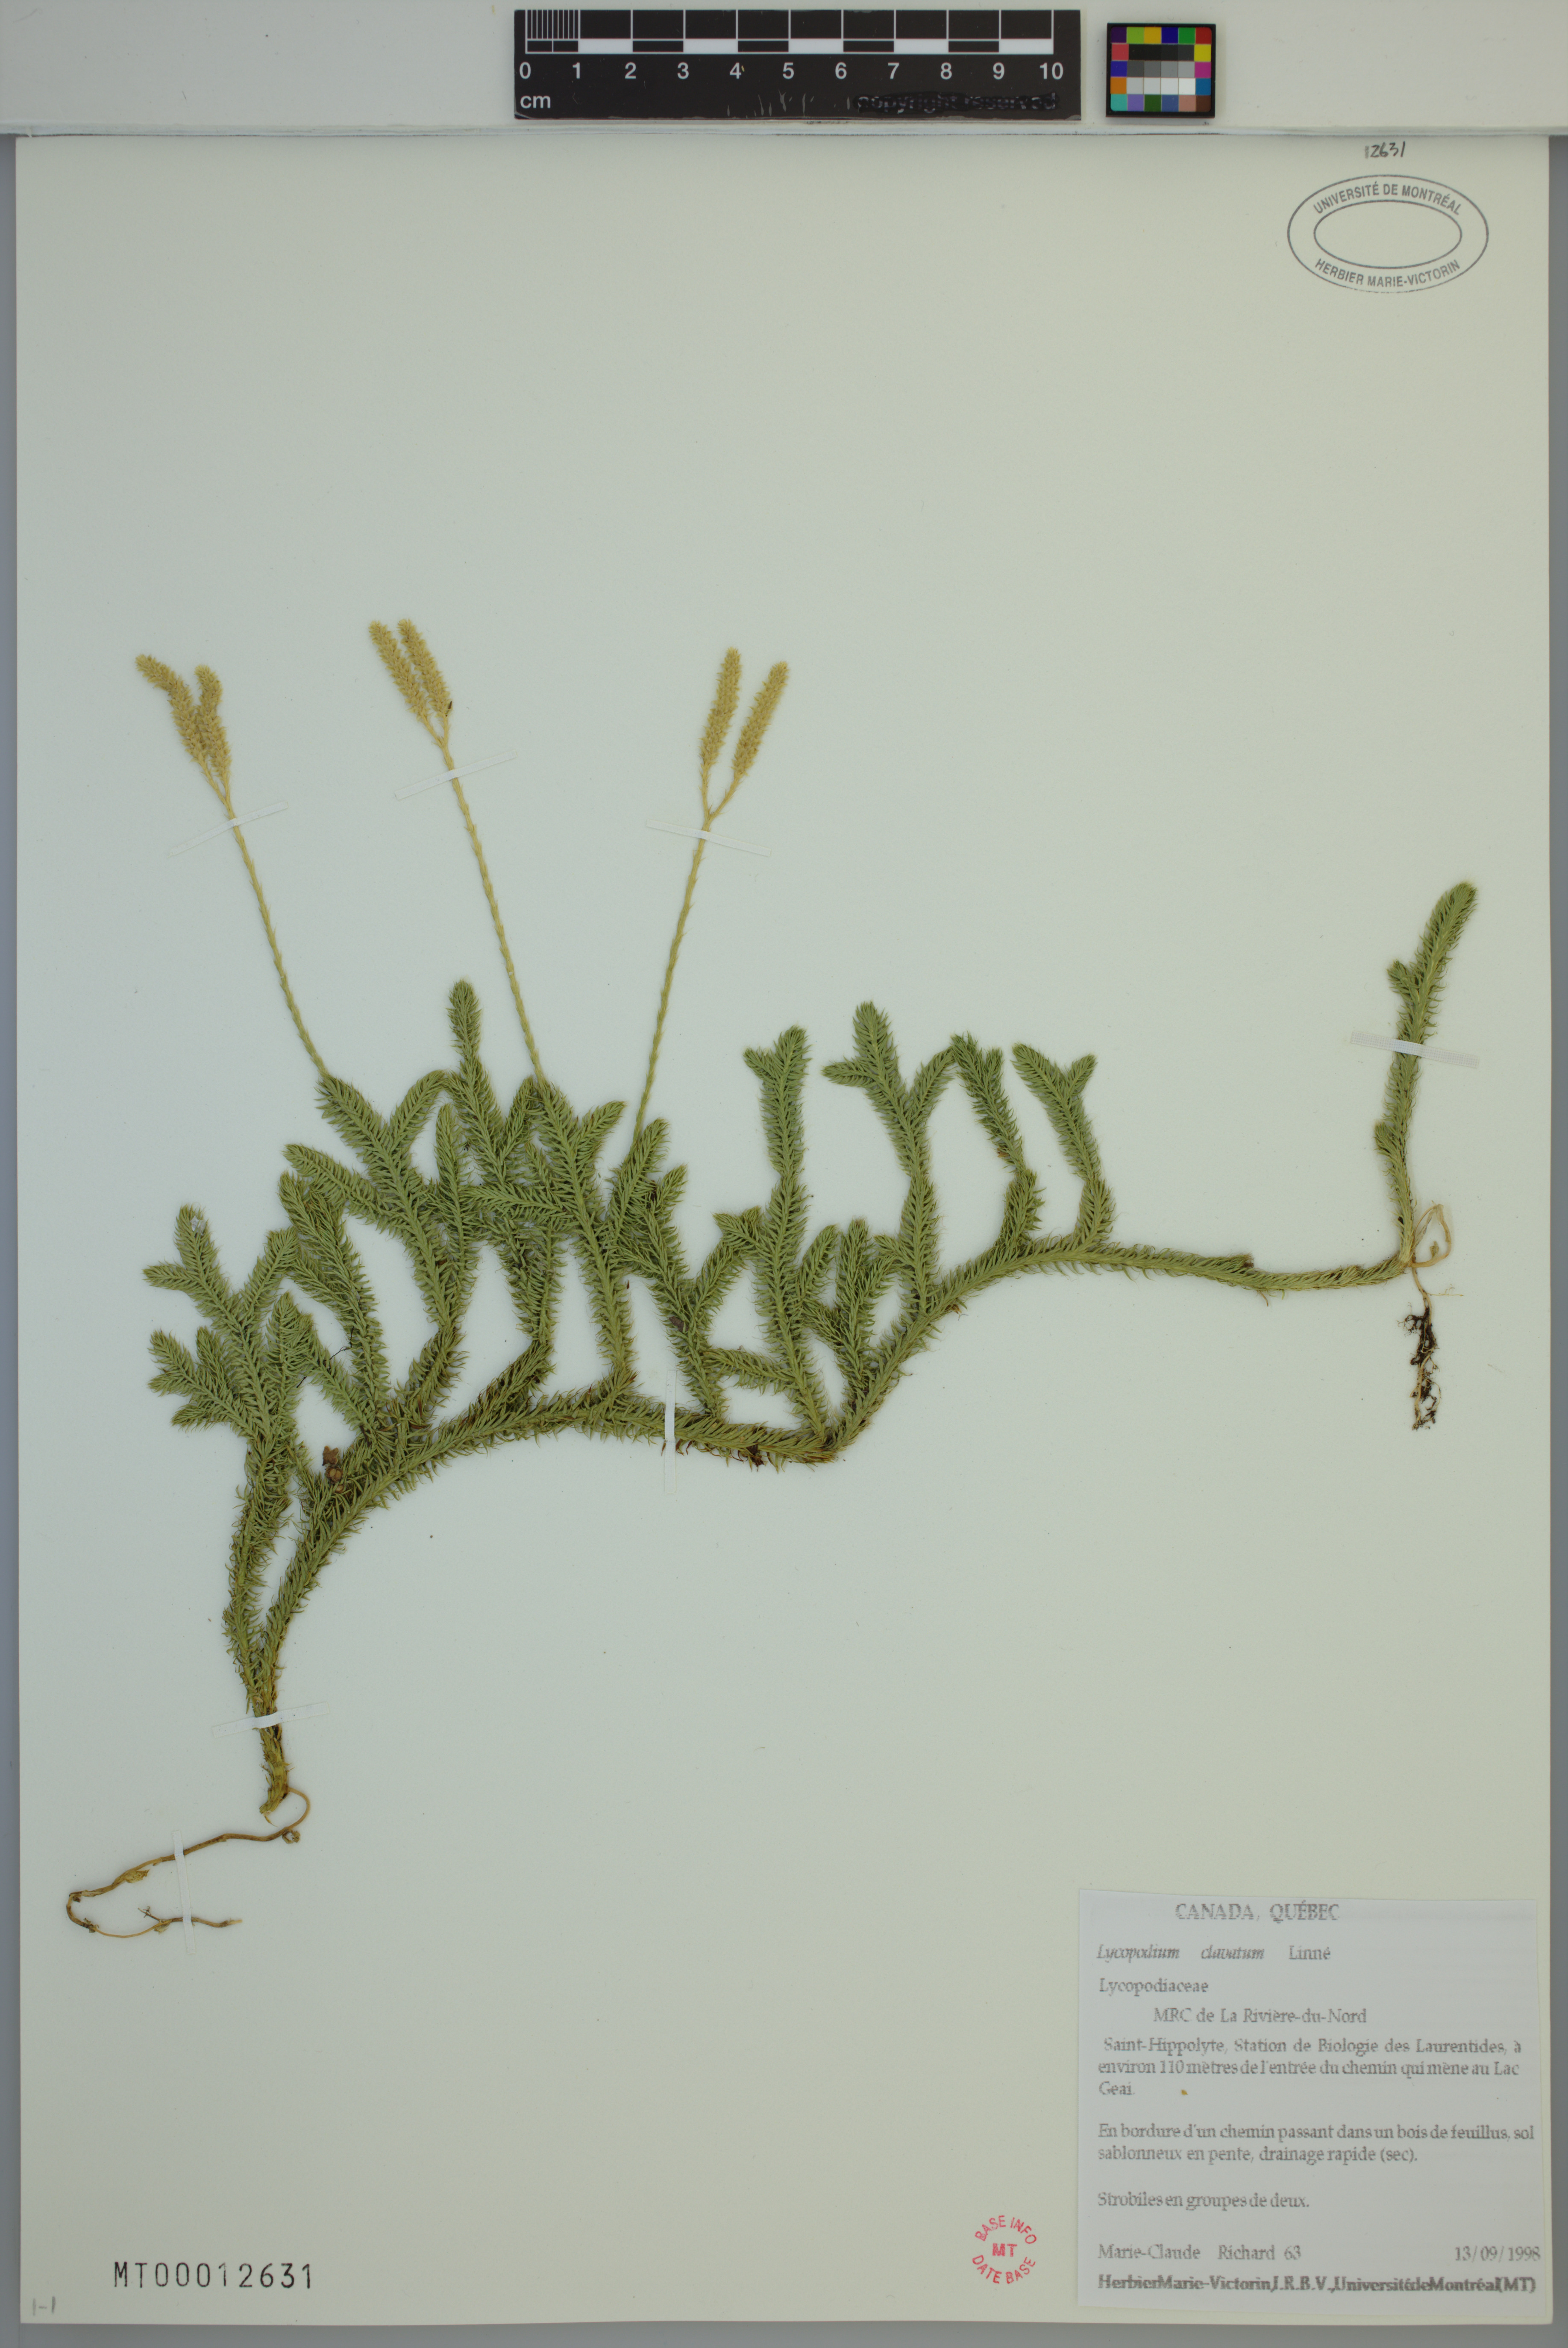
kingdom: Plantae
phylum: Tracheophyta
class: Lycopodiopsida
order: Lycopodiales
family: Lycopodiaceae
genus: Lycopodium
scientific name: Lycopodium clavatum
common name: Stag's-horn clubmoss
